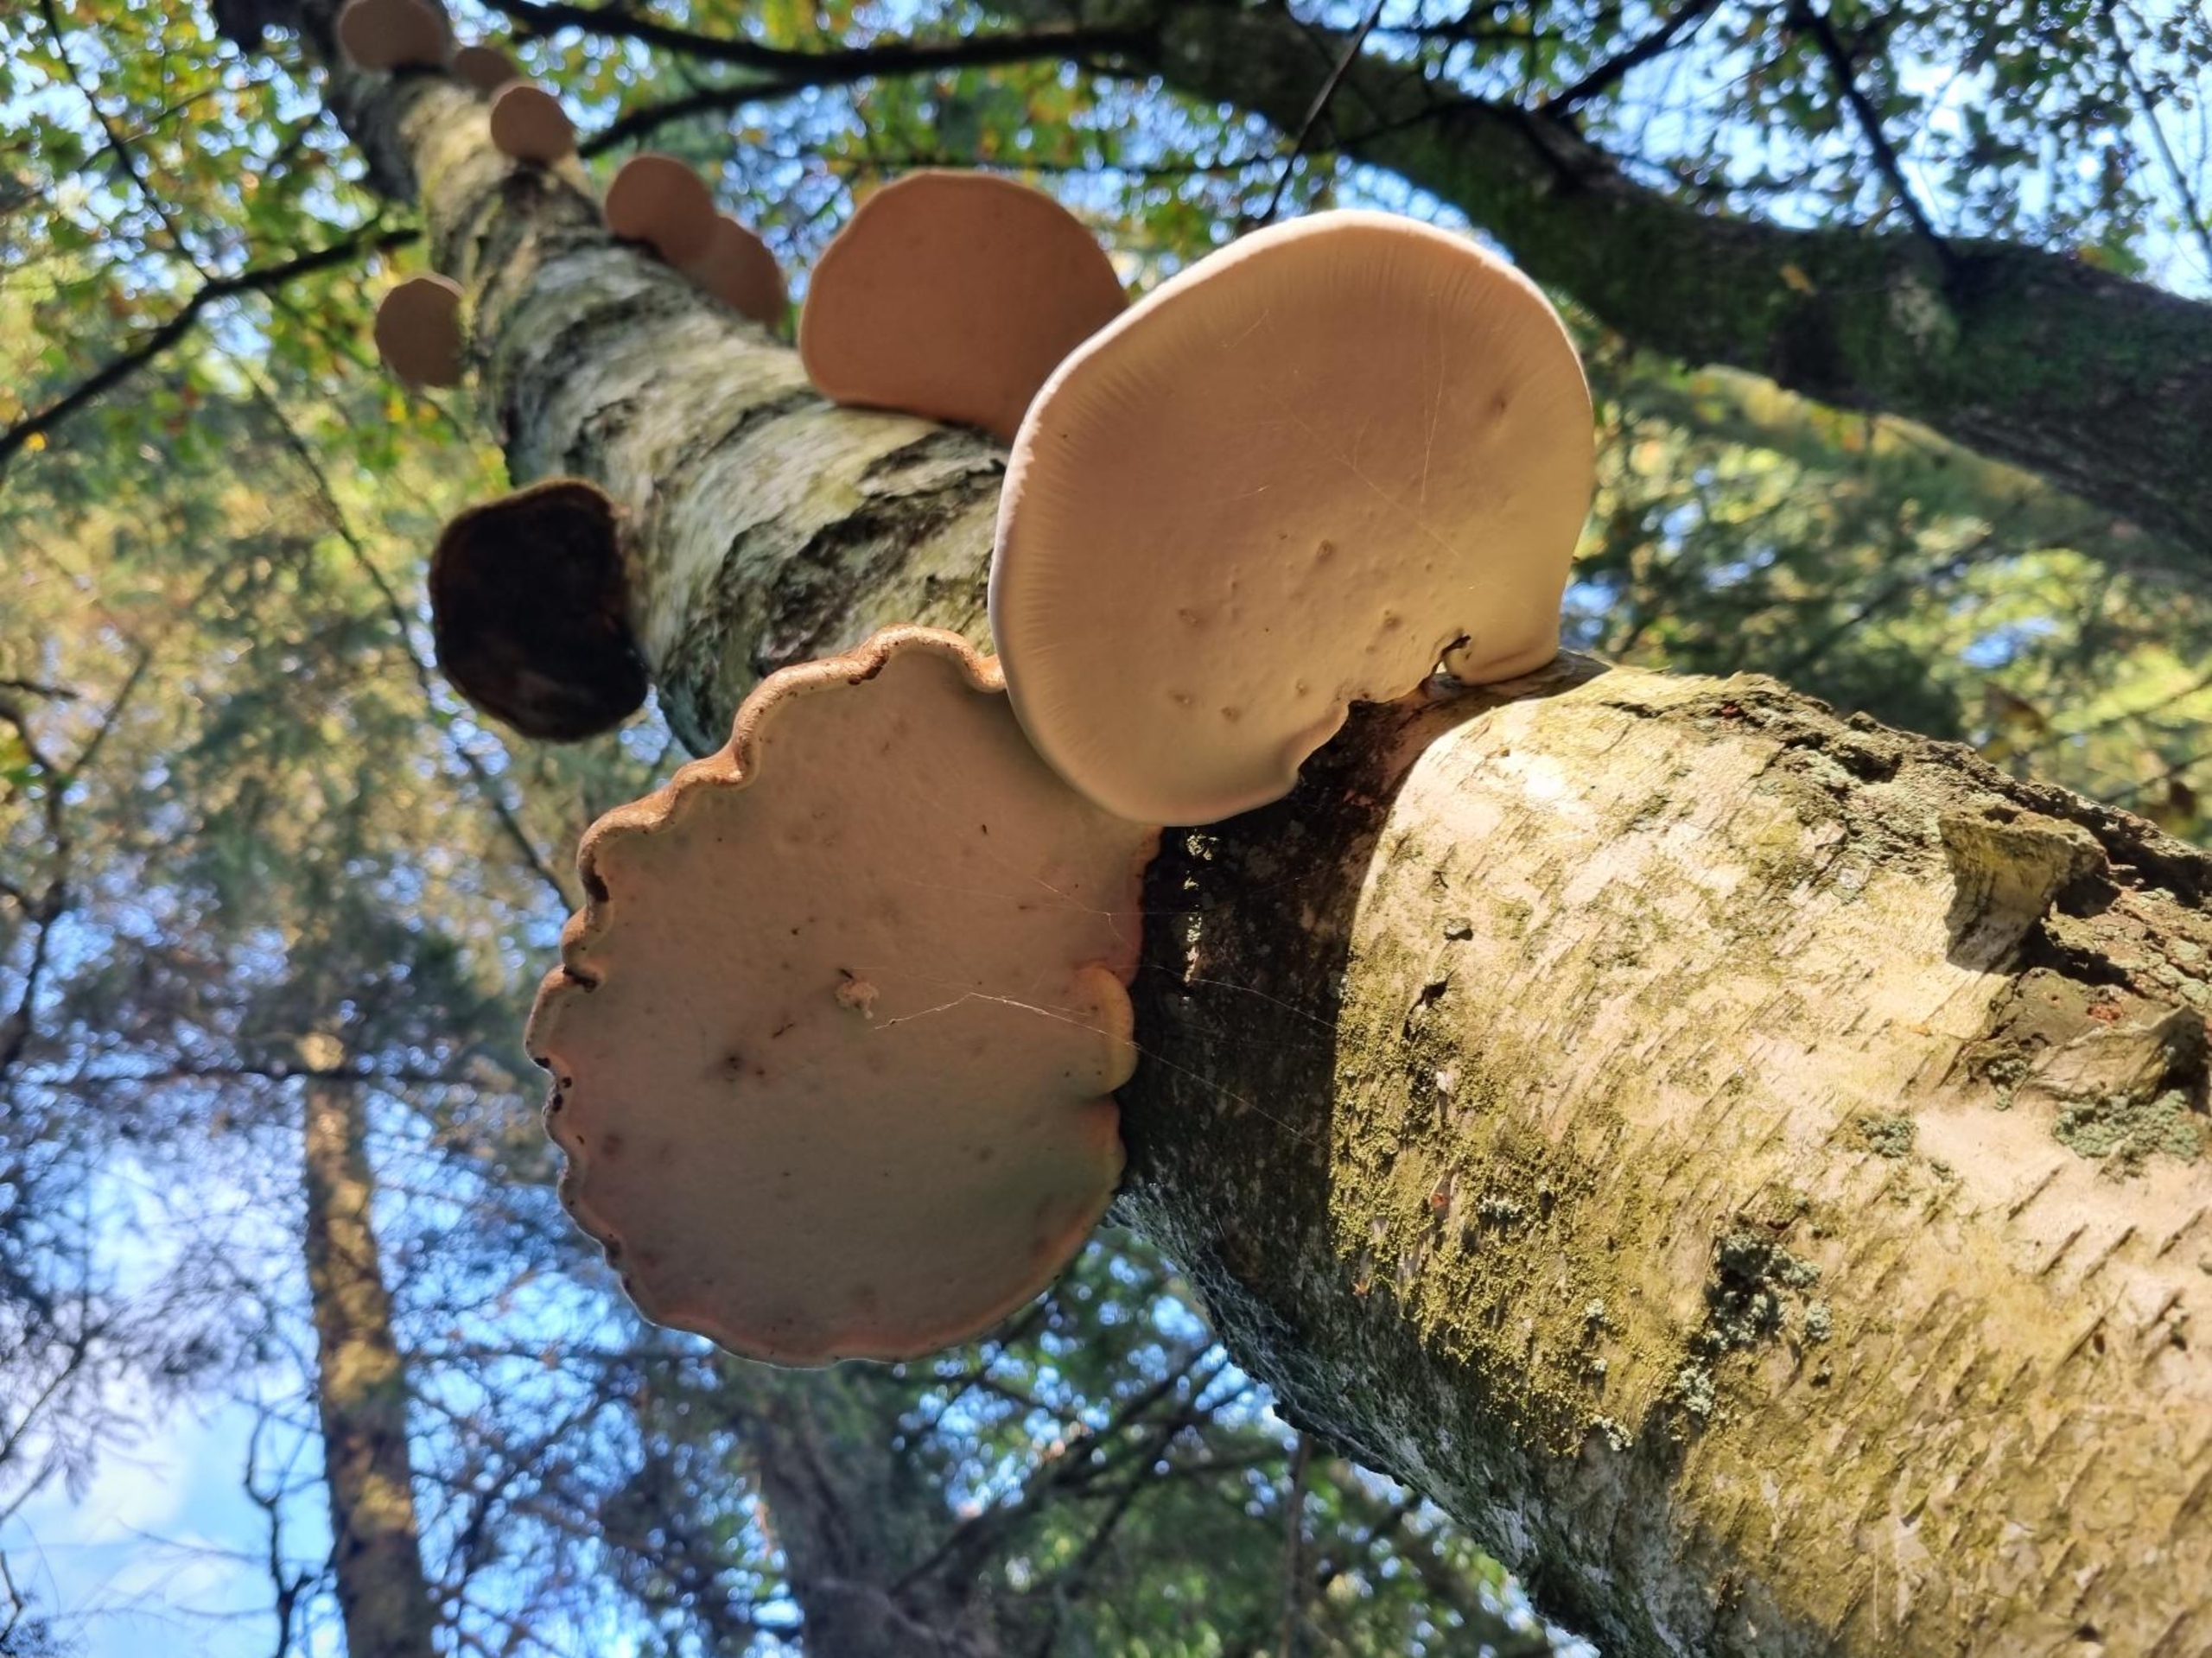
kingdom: Fungi
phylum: Basidiomycota
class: Agaricomycetes
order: Polyporales
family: Fomitopsidaceae
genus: Fomitopsis
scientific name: Fomitopsis betulina
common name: Birkeporesvamp
